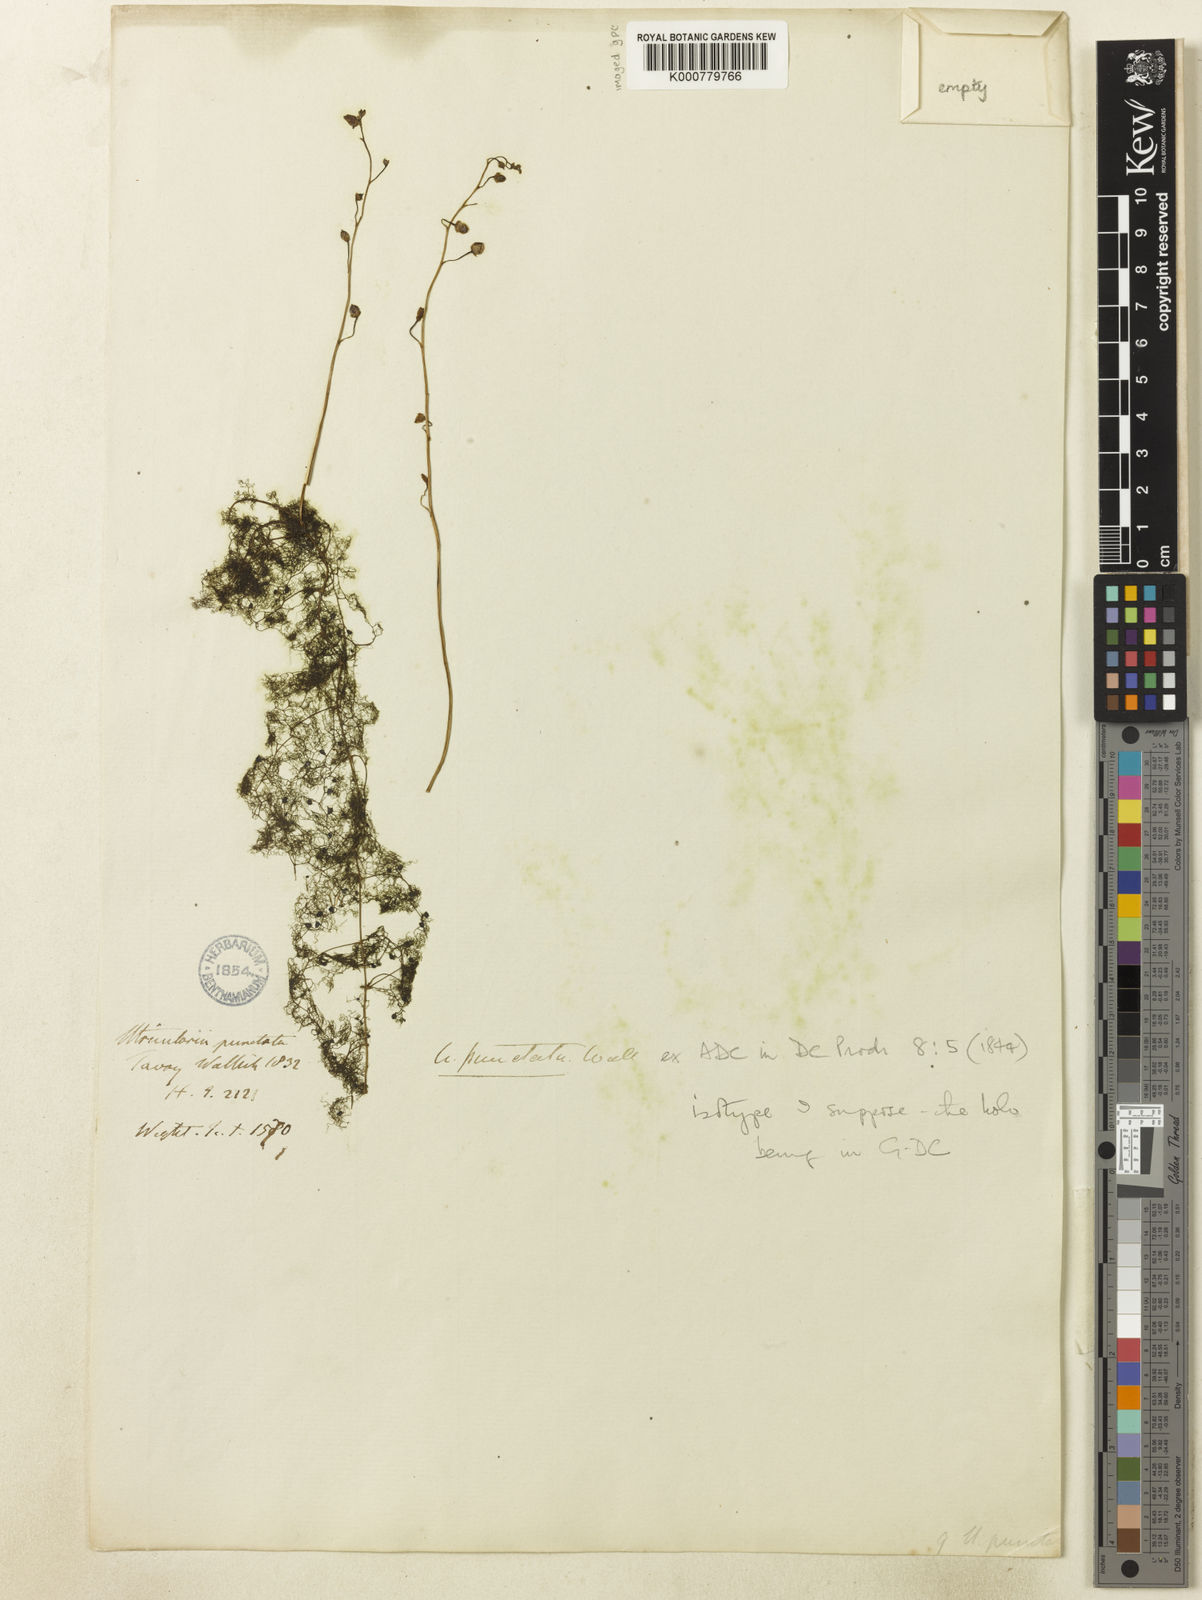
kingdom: Plantae
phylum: Tracheophyta
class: Magnoliopsida
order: Lamiales
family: Lentibulariaceae
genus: Utricularia
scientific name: Utricularia
